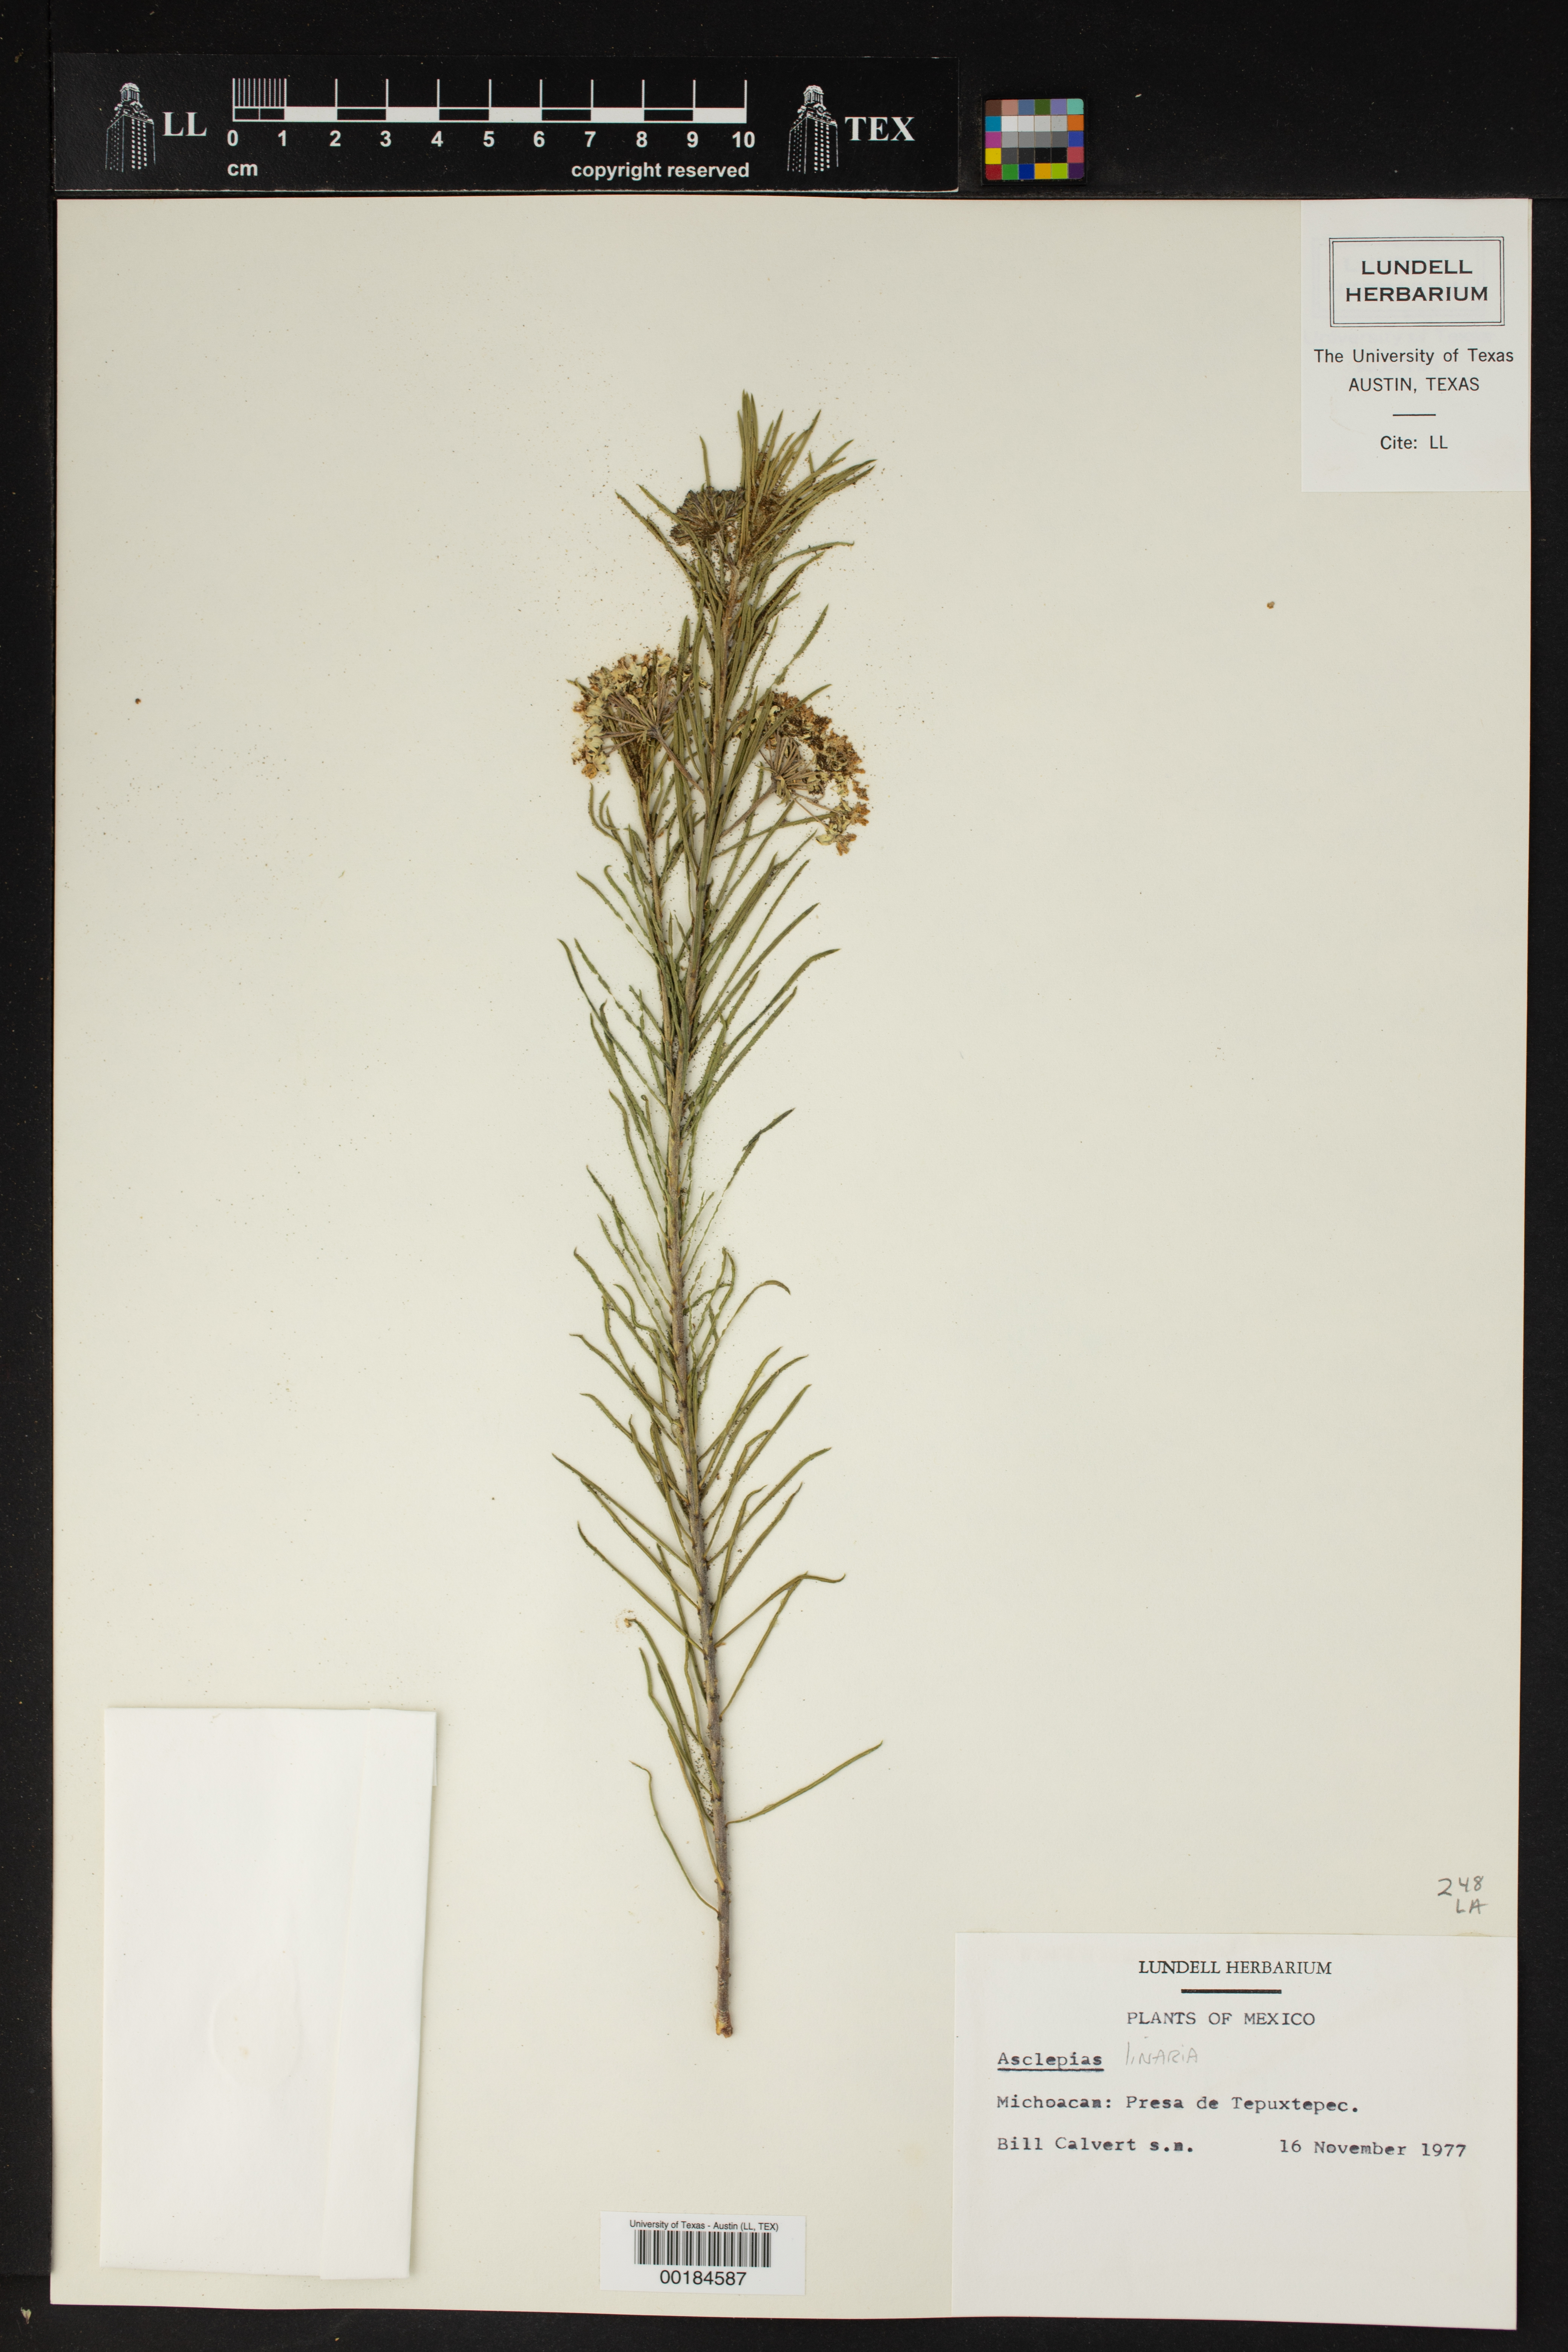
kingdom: Plantae
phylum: Tracheophyta
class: Magnoliopsida
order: Gentianales
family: Apocynaceae
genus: Asclepias
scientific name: Asclepias linaria
